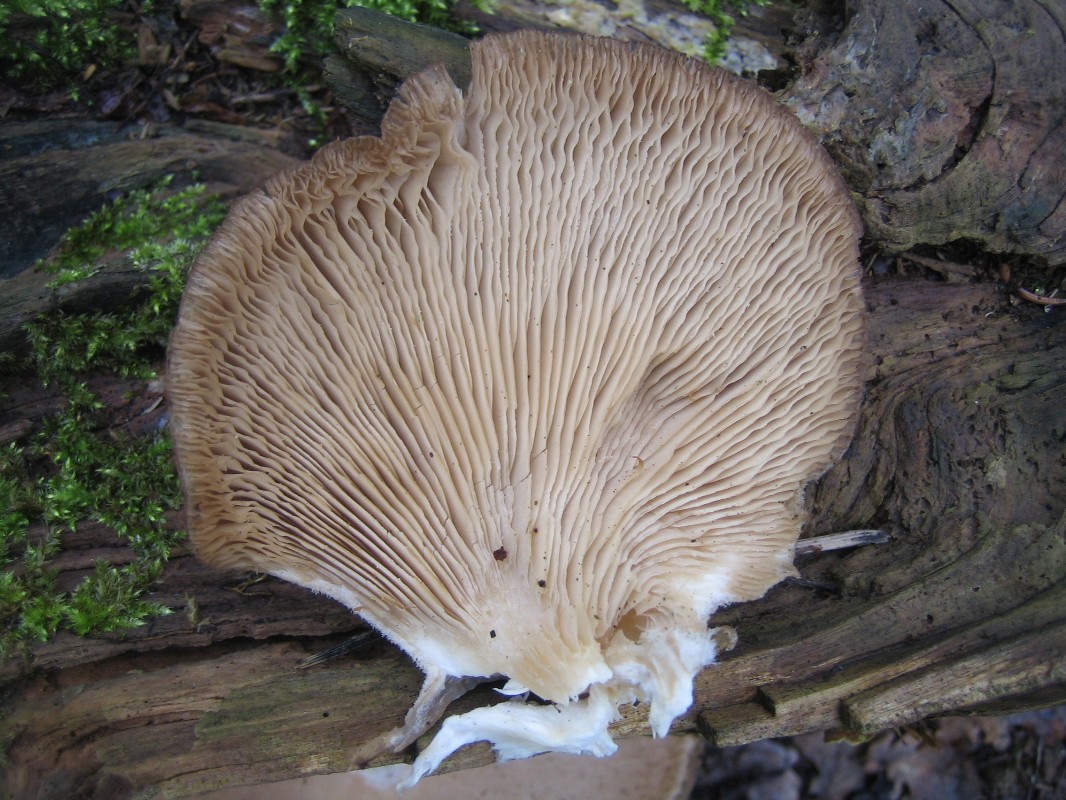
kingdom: Fungi
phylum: Basidiomycota
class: Agaricomycetes
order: Agaricales
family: Pleurotaceae
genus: Pleurotus
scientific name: Pleurotus ostreatus
